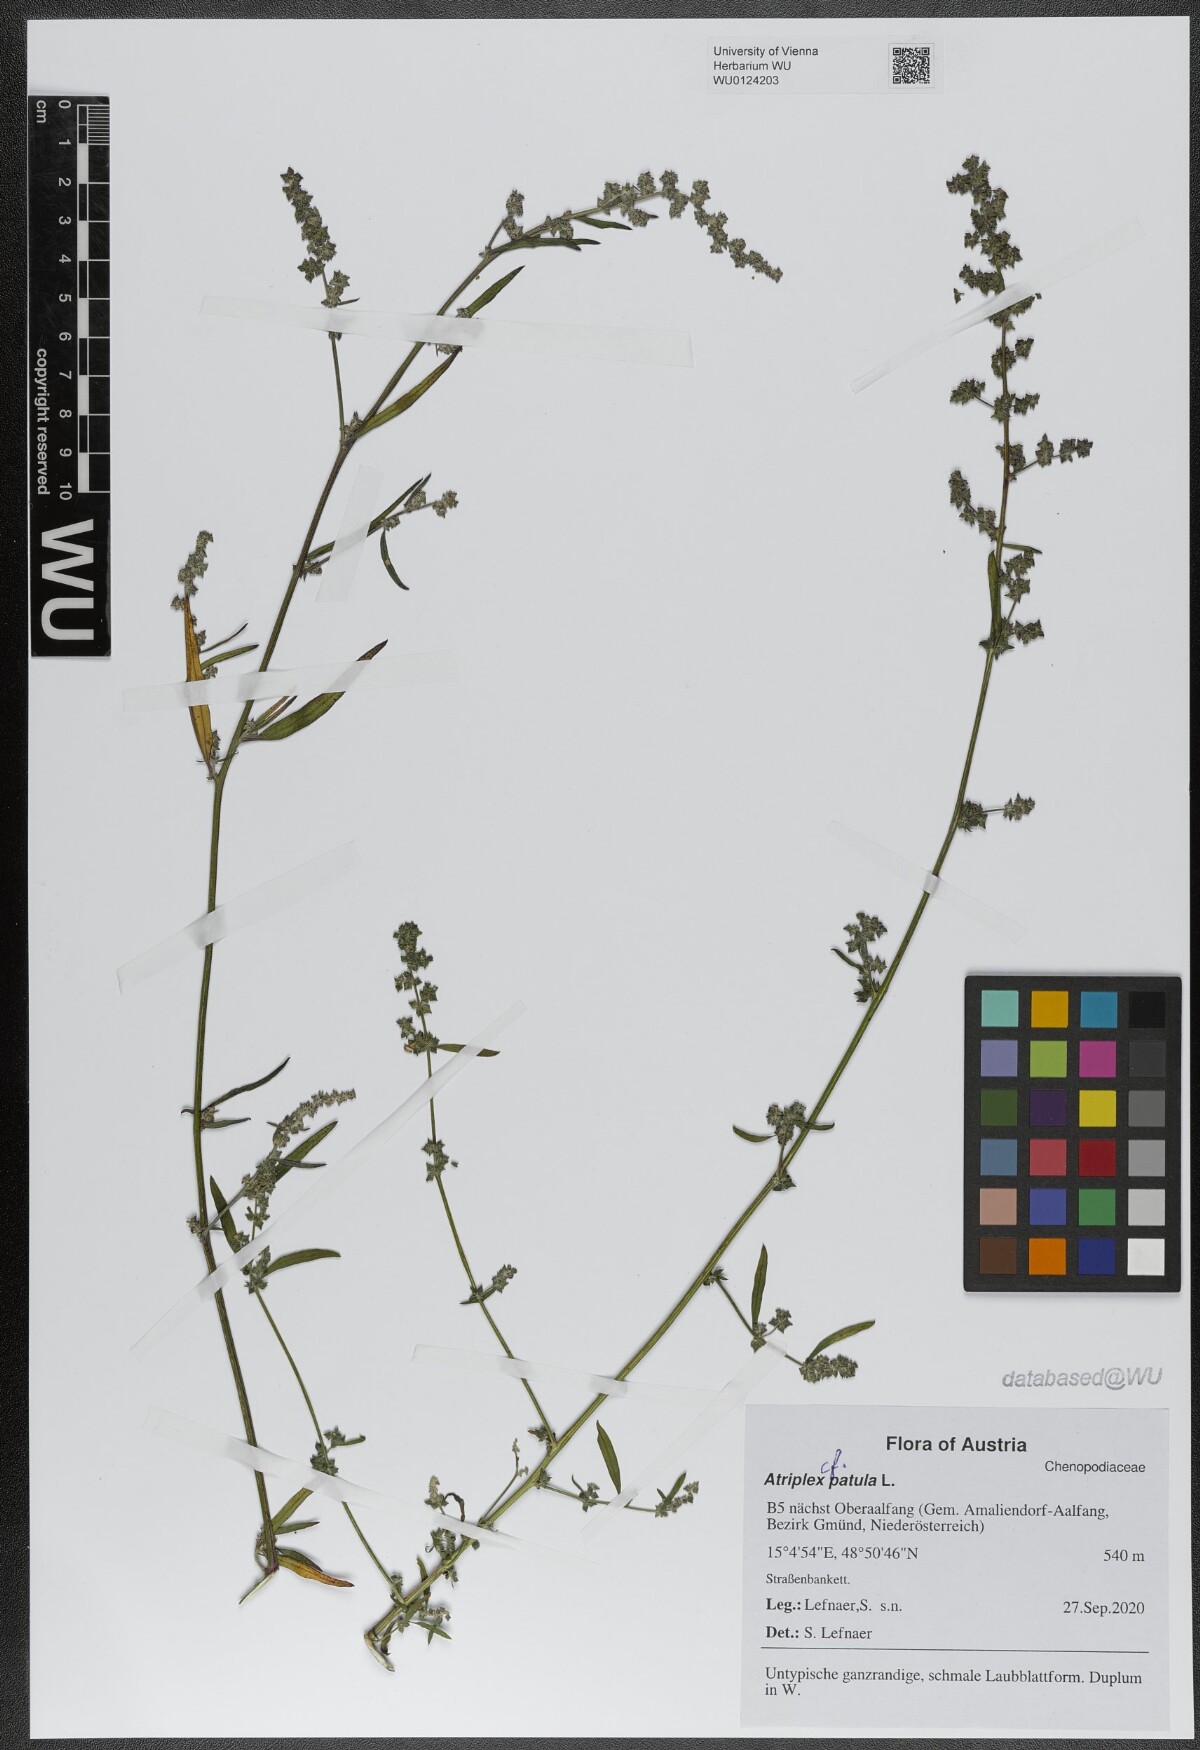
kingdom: Plantae
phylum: Tracheophyta
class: Magnoliopsida
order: Caryophyllales
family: Amaranthaceae
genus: Atriplex
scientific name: Atriplex patula
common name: Common orache
